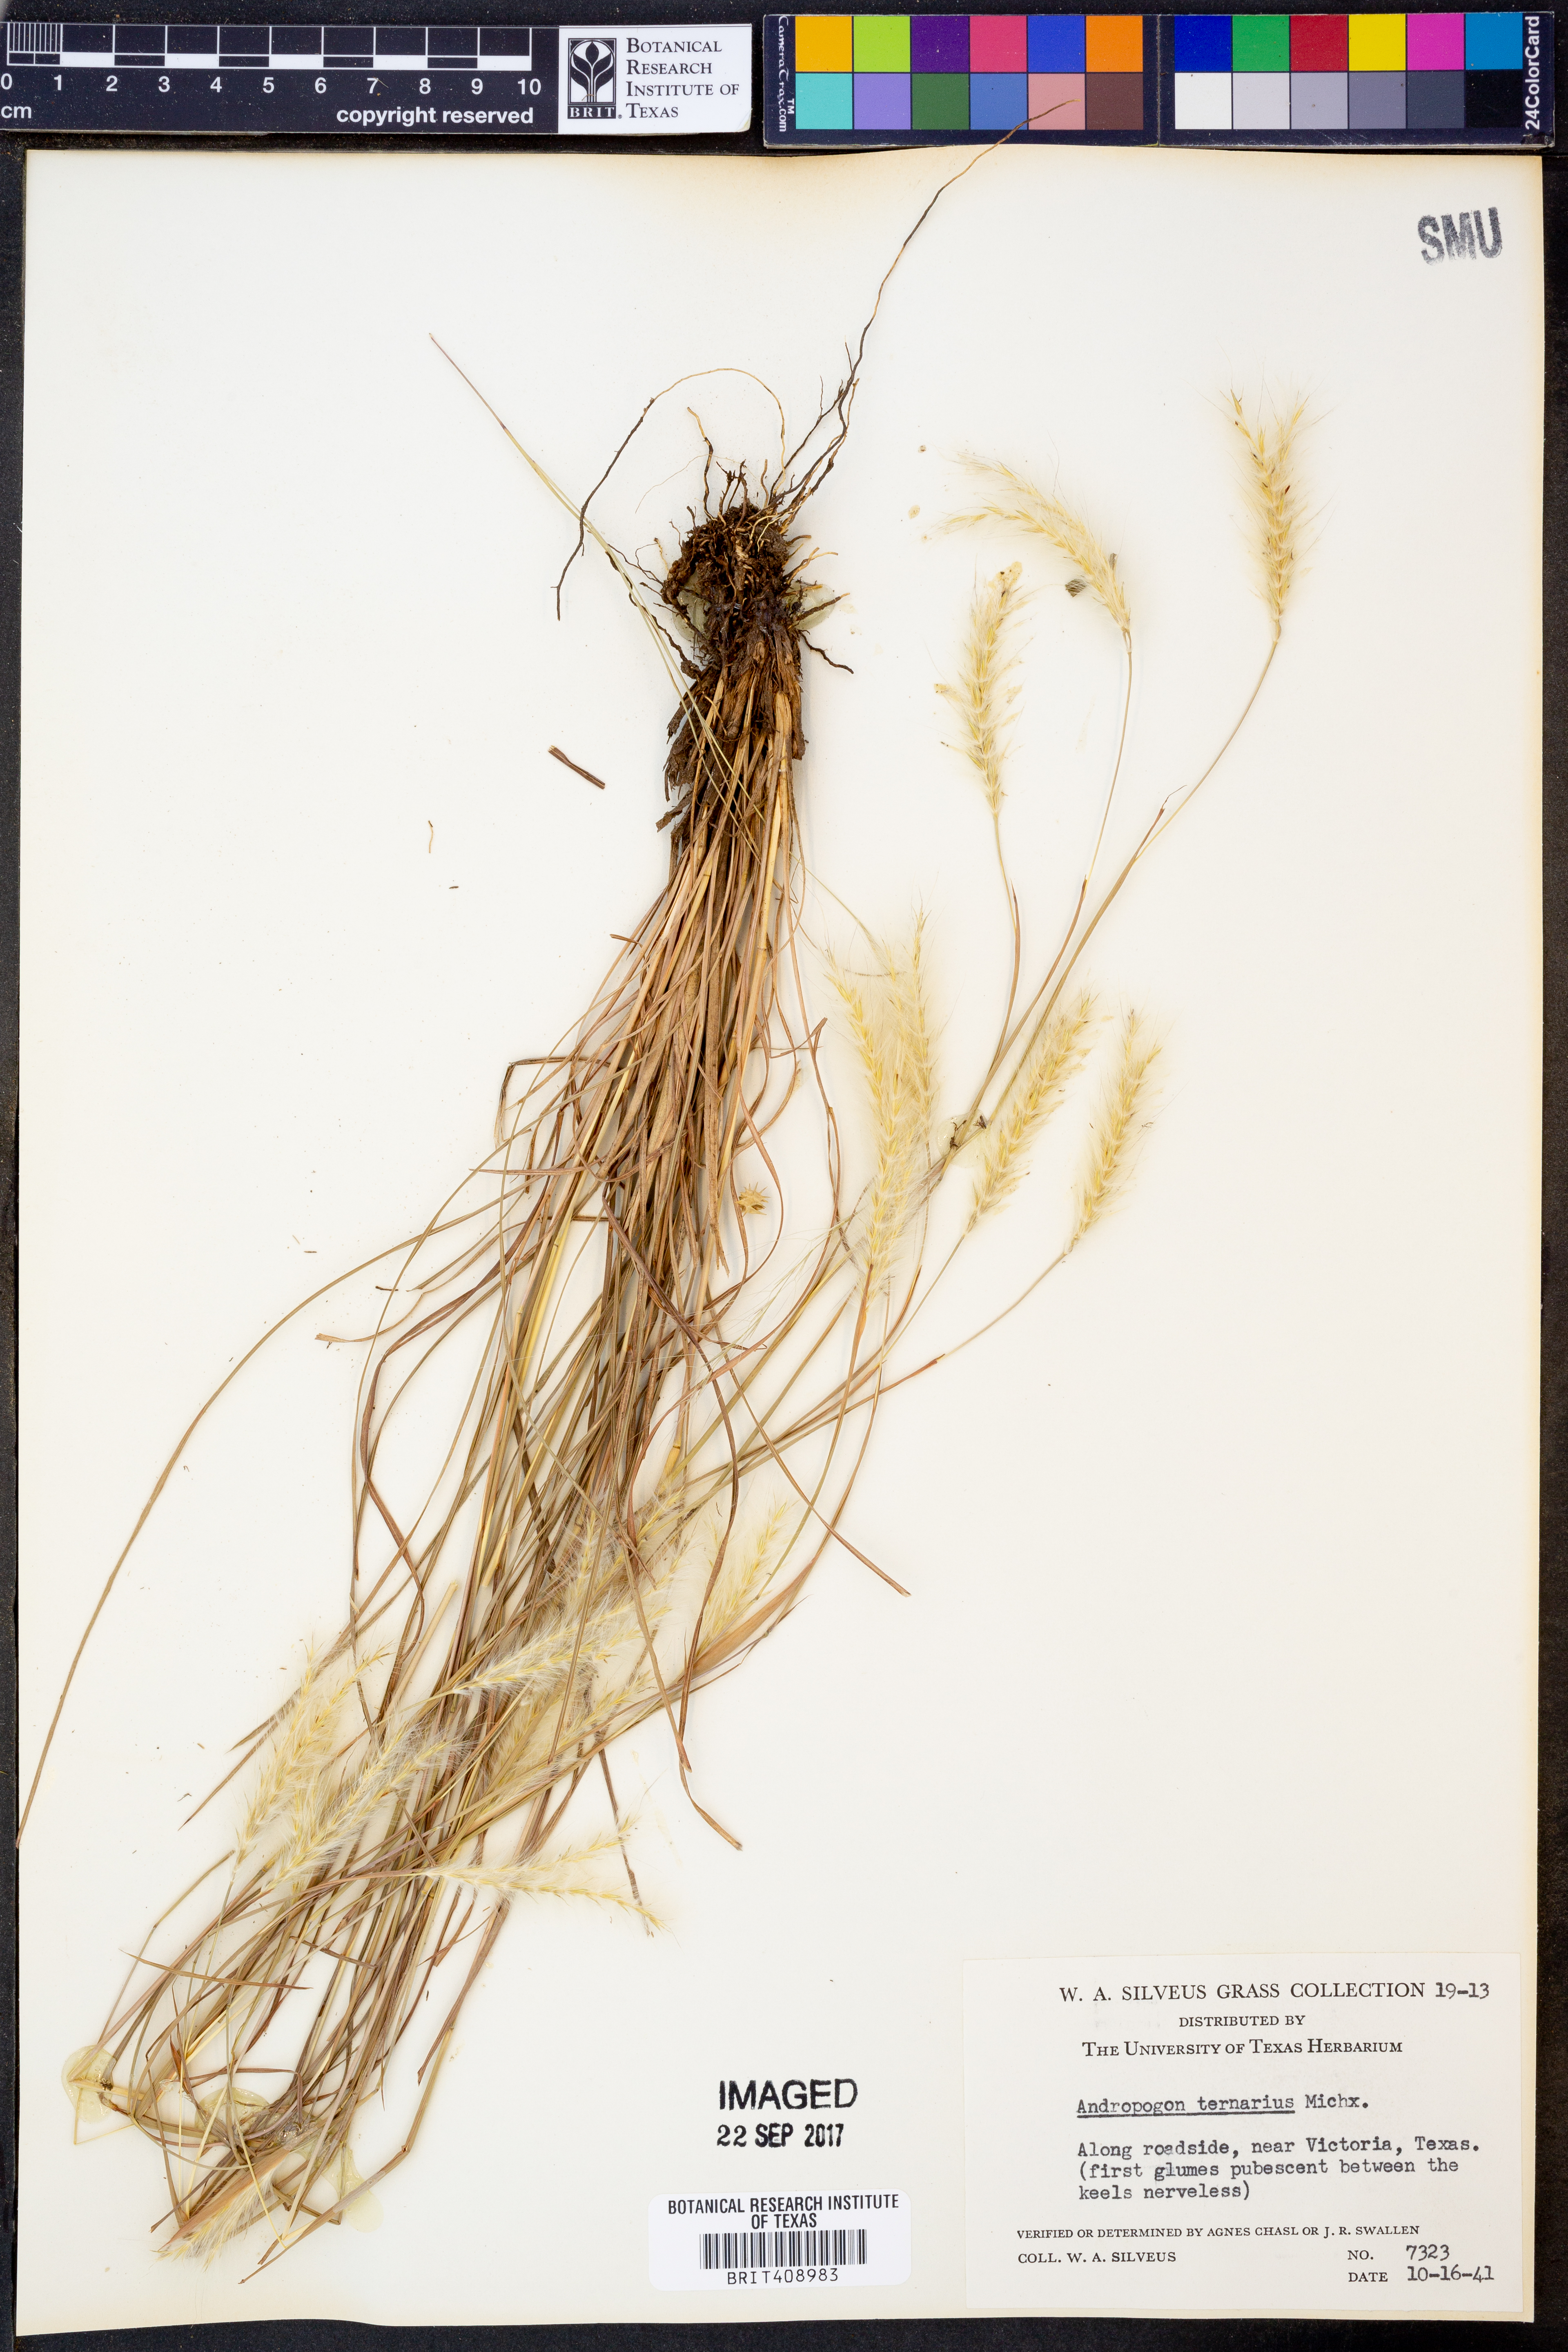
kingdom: Plantae
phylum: Tracheophyta
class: Liliopsida
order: Poales
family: Poaceae
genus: Andropogon
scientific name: Andropogon ternarius
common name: Split bluestem
